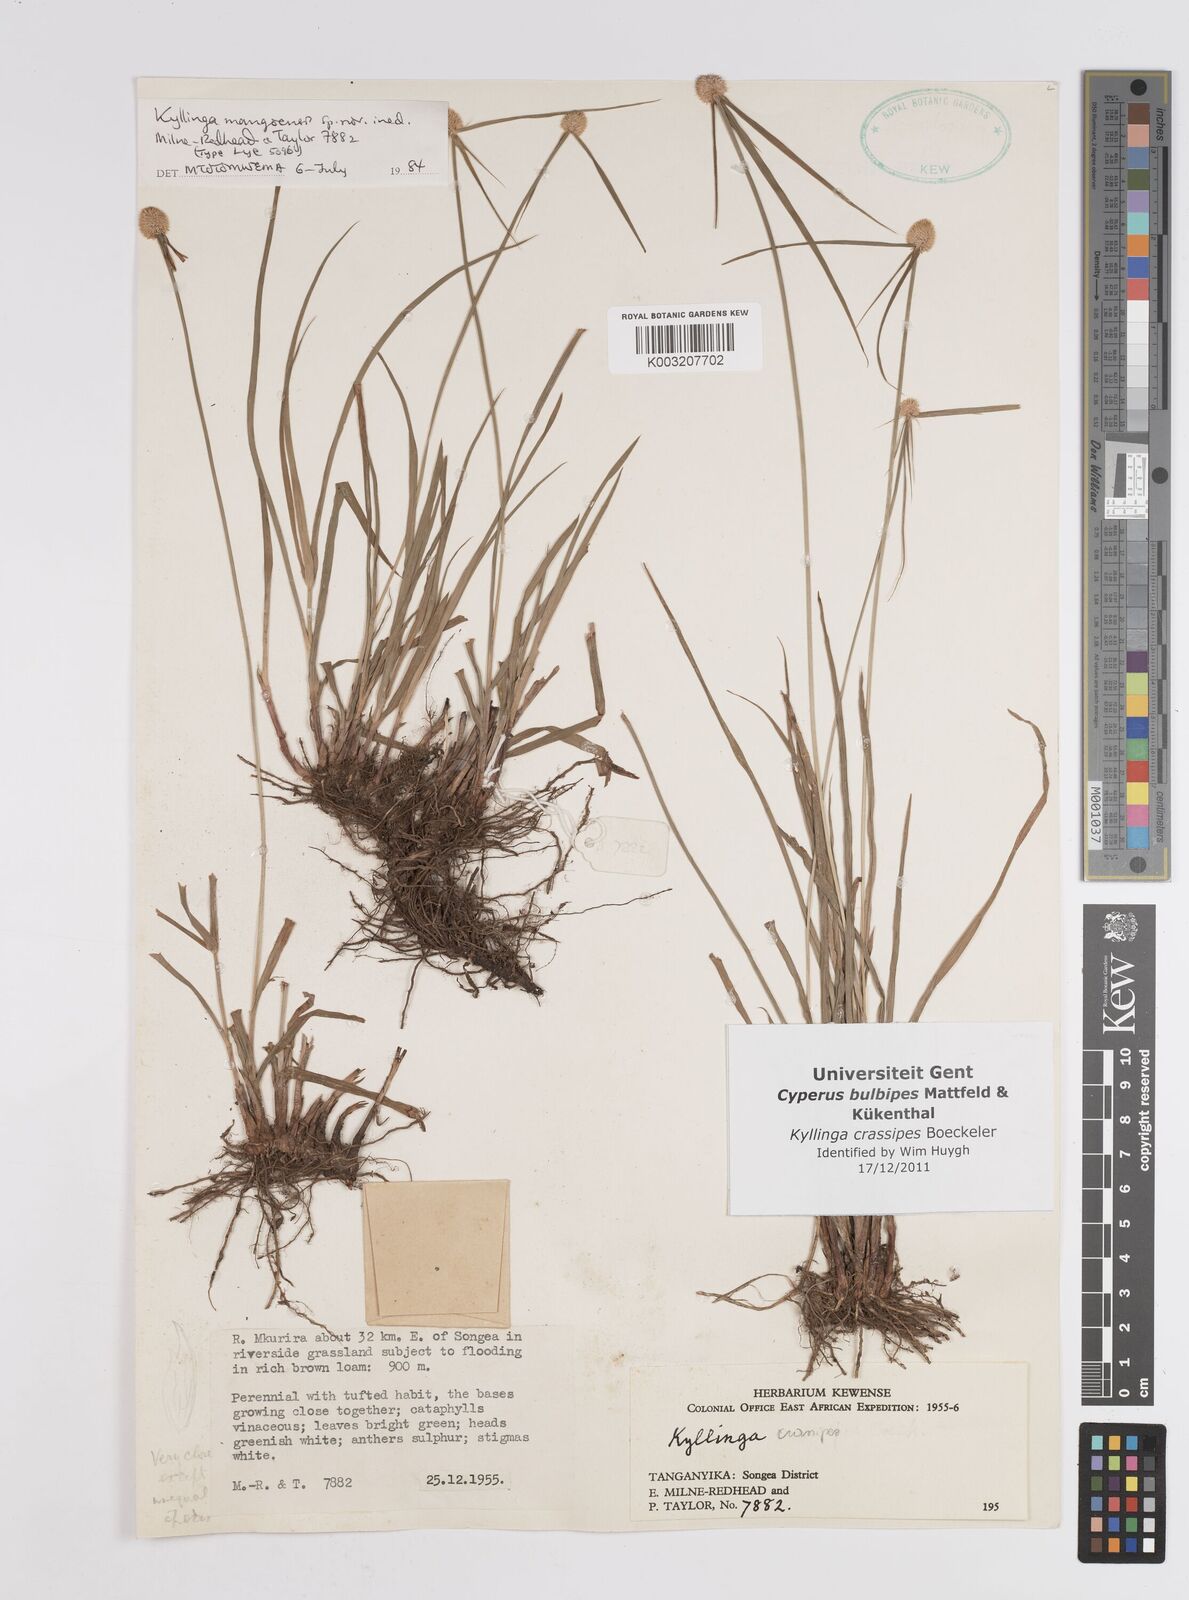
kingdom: Plantae
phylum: Tracheophyta
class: Liliopsida
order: Poales
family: Cyperaceae
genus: Cyperus
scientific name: Cyperus crassipes
